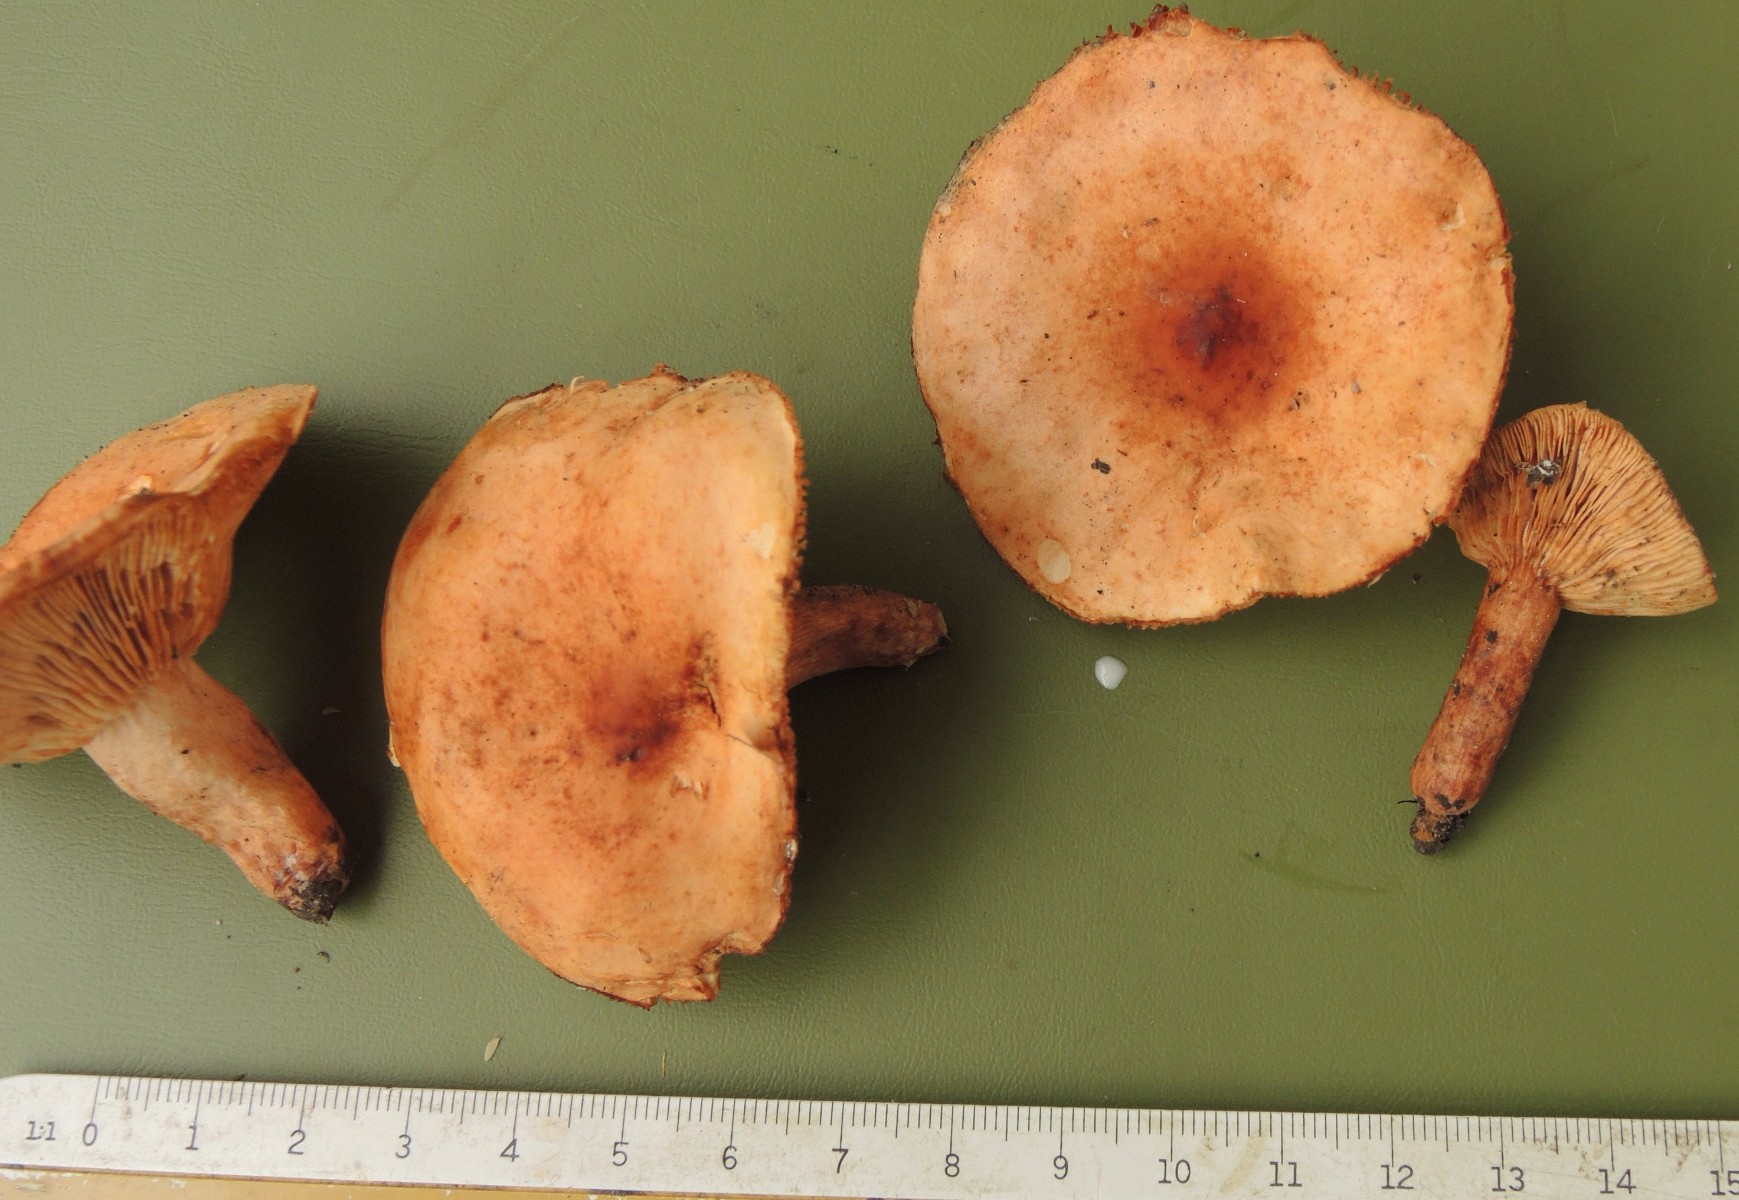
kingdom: Fungi
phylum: Basidiomycota
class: Agaricomycetes
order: Russulales
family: Russulaceae
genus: Lactarius
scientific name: Lactarius fulvissimus
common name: ræve-mælkehat
